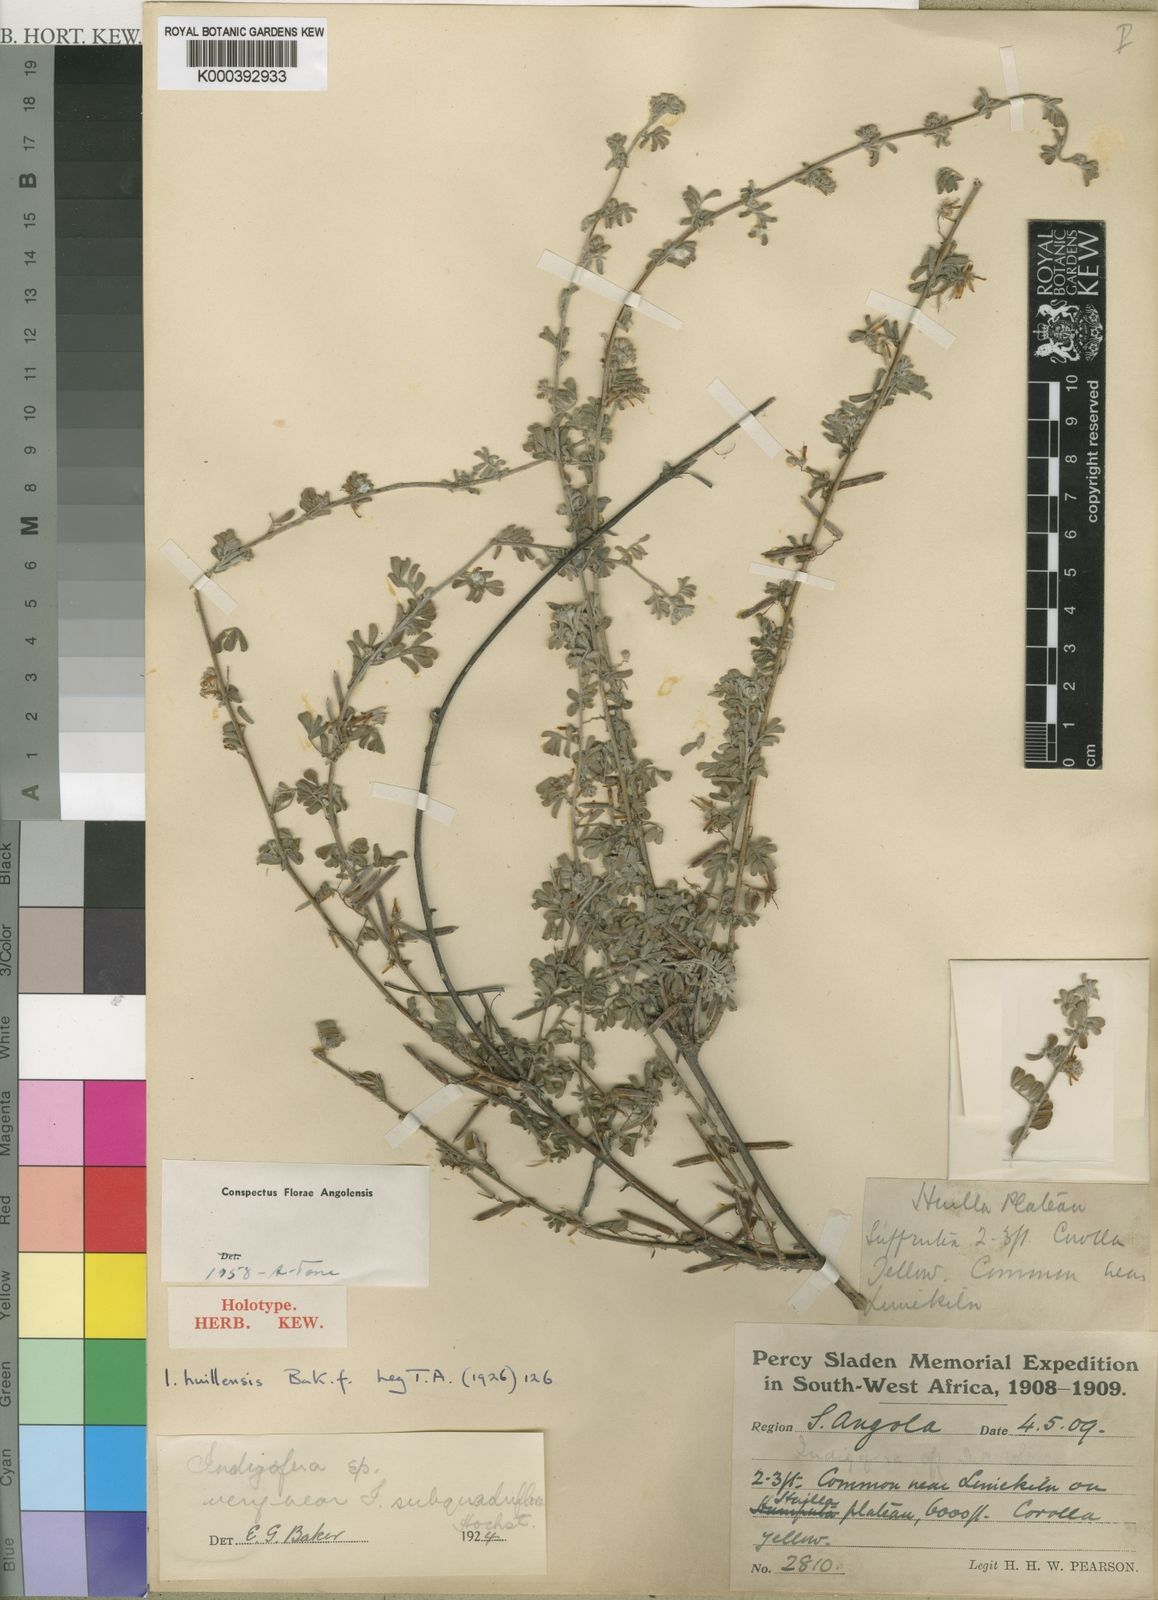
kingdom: Plantae
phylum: Tracheophyta
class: Magnoliopsida
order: Fabales
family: Fabaceae
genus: Indigofera
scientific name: Indigofera huillensis
